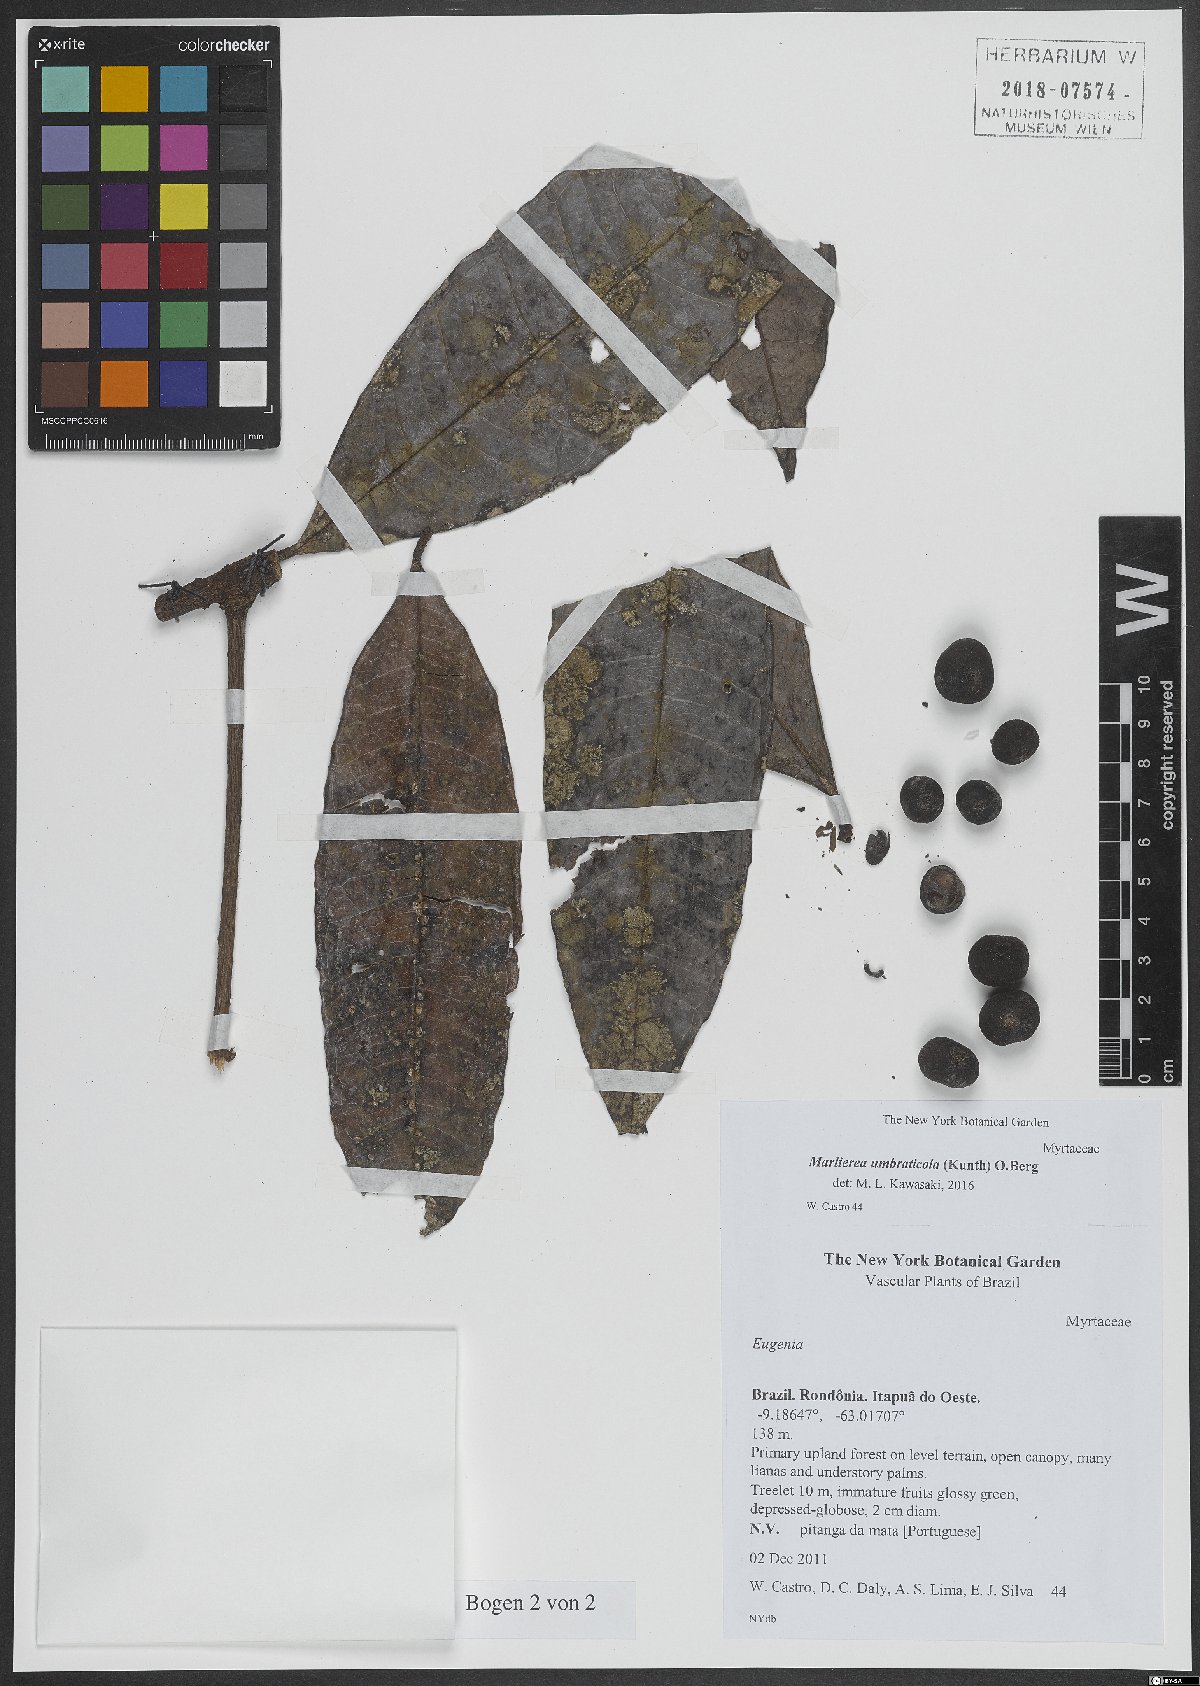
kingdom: Plantae
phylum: Tracheophyta
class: Magnoliopsida
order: Myrtales
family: Myrtaceae
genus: Myrcia
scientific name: Myrcia umbraticola
